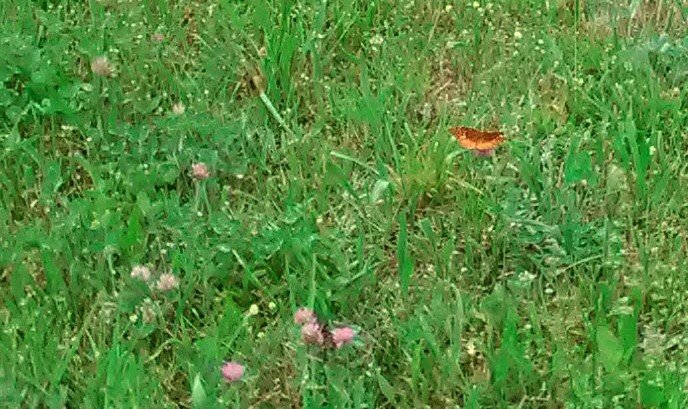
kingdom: Animalia
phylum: Arthropoda
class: Insecta
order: Lepidoptera
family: Nymphalidae
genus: Speyeria
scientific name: Speyeria cybele
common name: Great Spangled Fritillary
